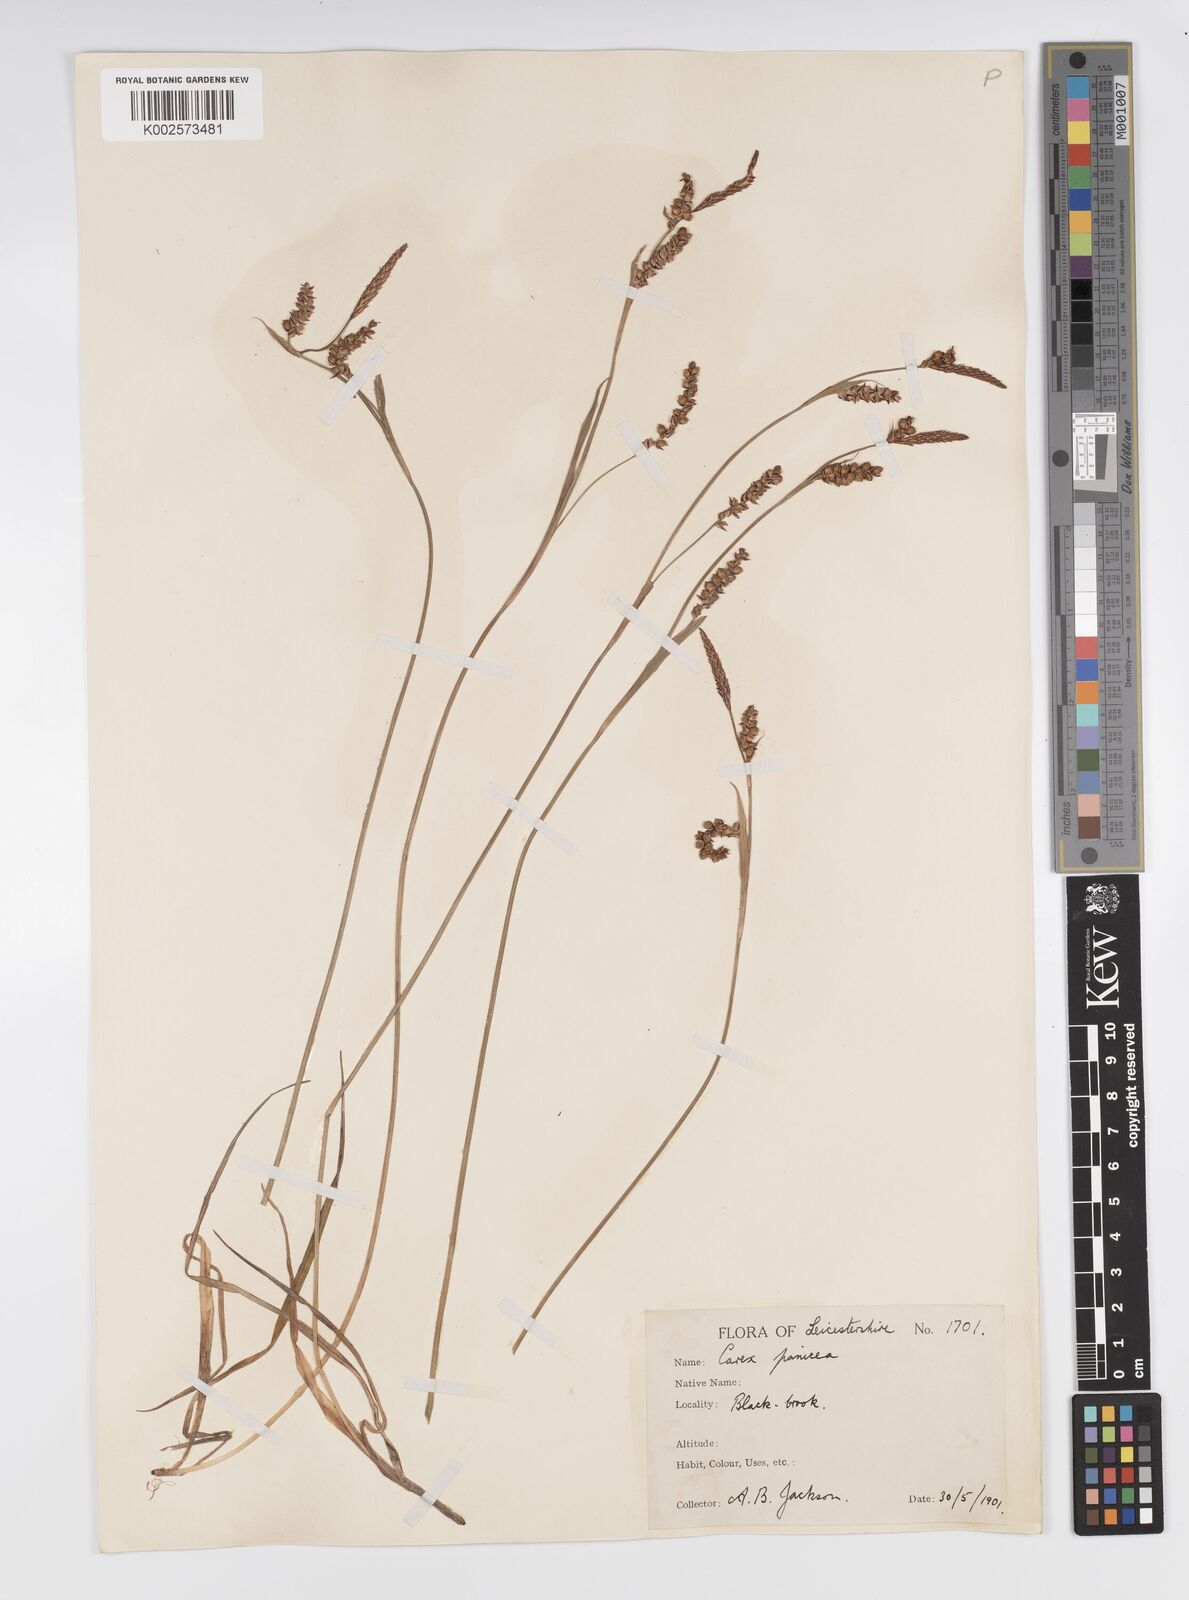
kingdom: Plantae
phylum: Tracheophyta
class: Liliopsida
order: Poales
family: Cyperaceae
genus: Carex
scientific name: Carex panicea
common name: Carnation sedge
